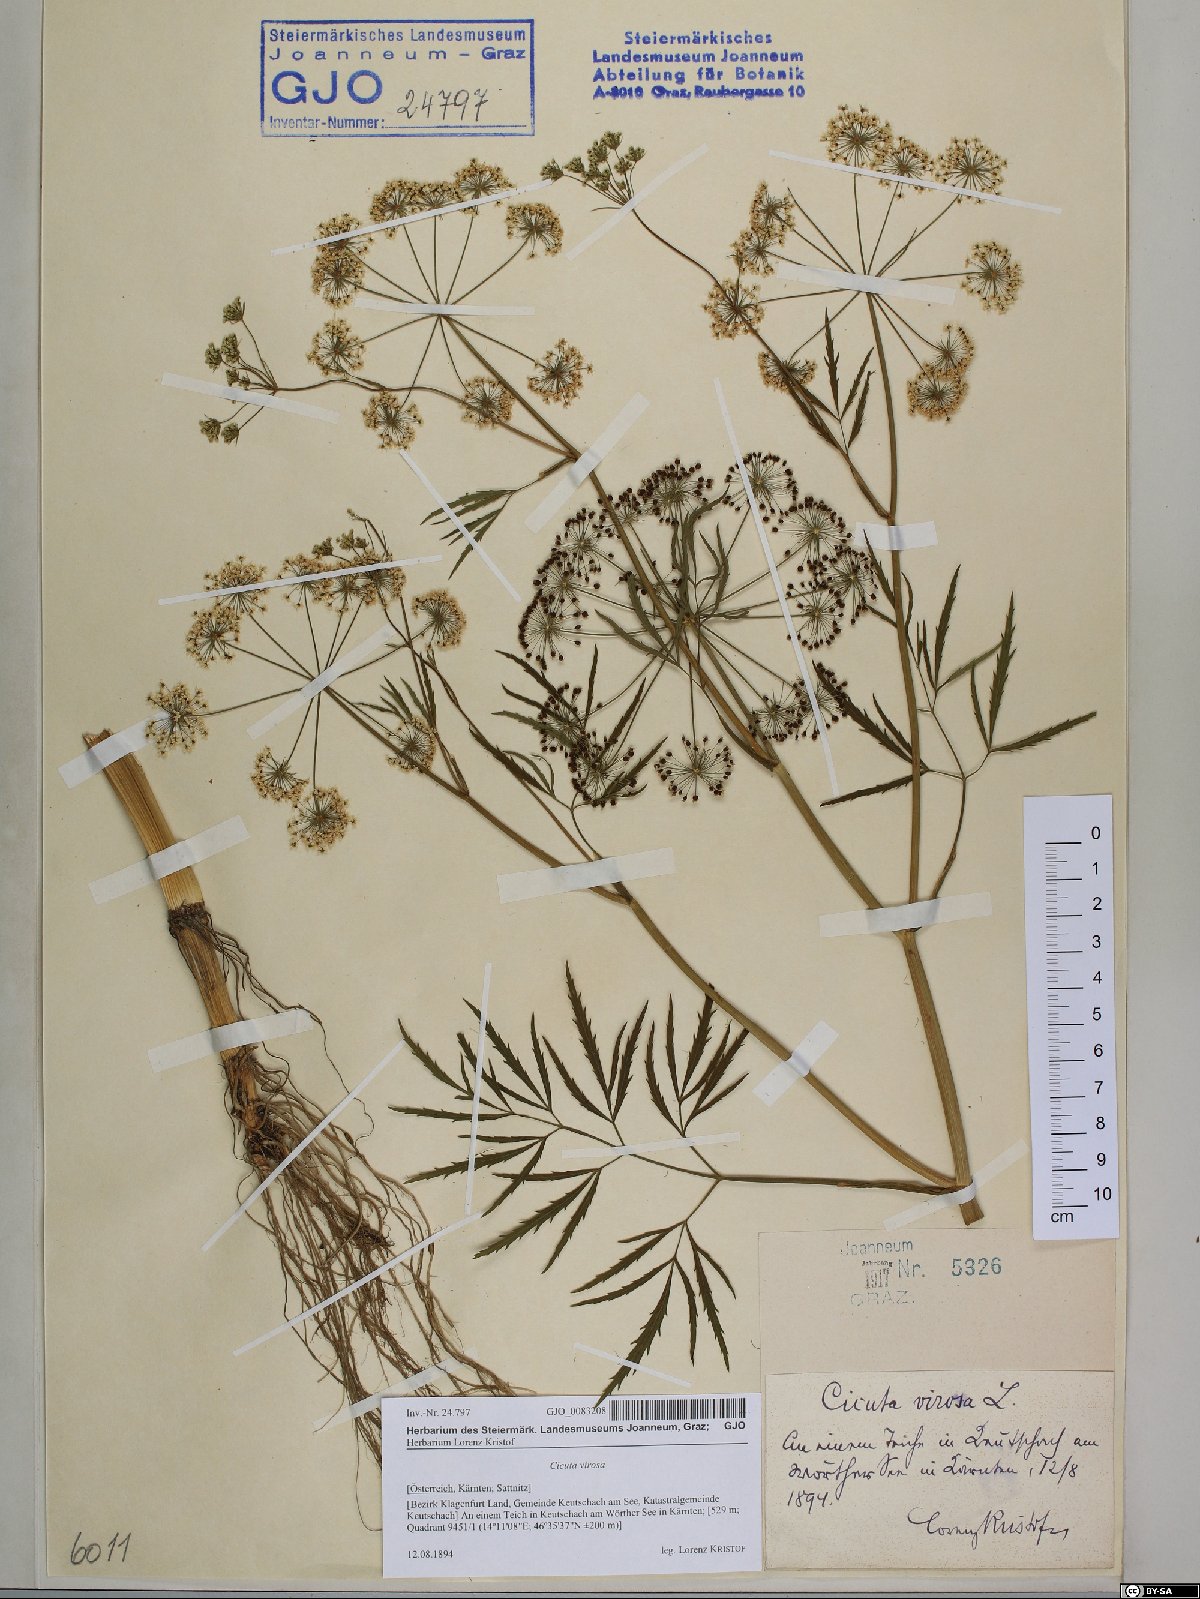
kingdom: Plantae
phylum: Tracheophyta
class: Magnoliopsida
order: Apiales
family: Apiaceae
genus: Cicuta
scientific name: Cicuta virosa
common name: Cowbane
